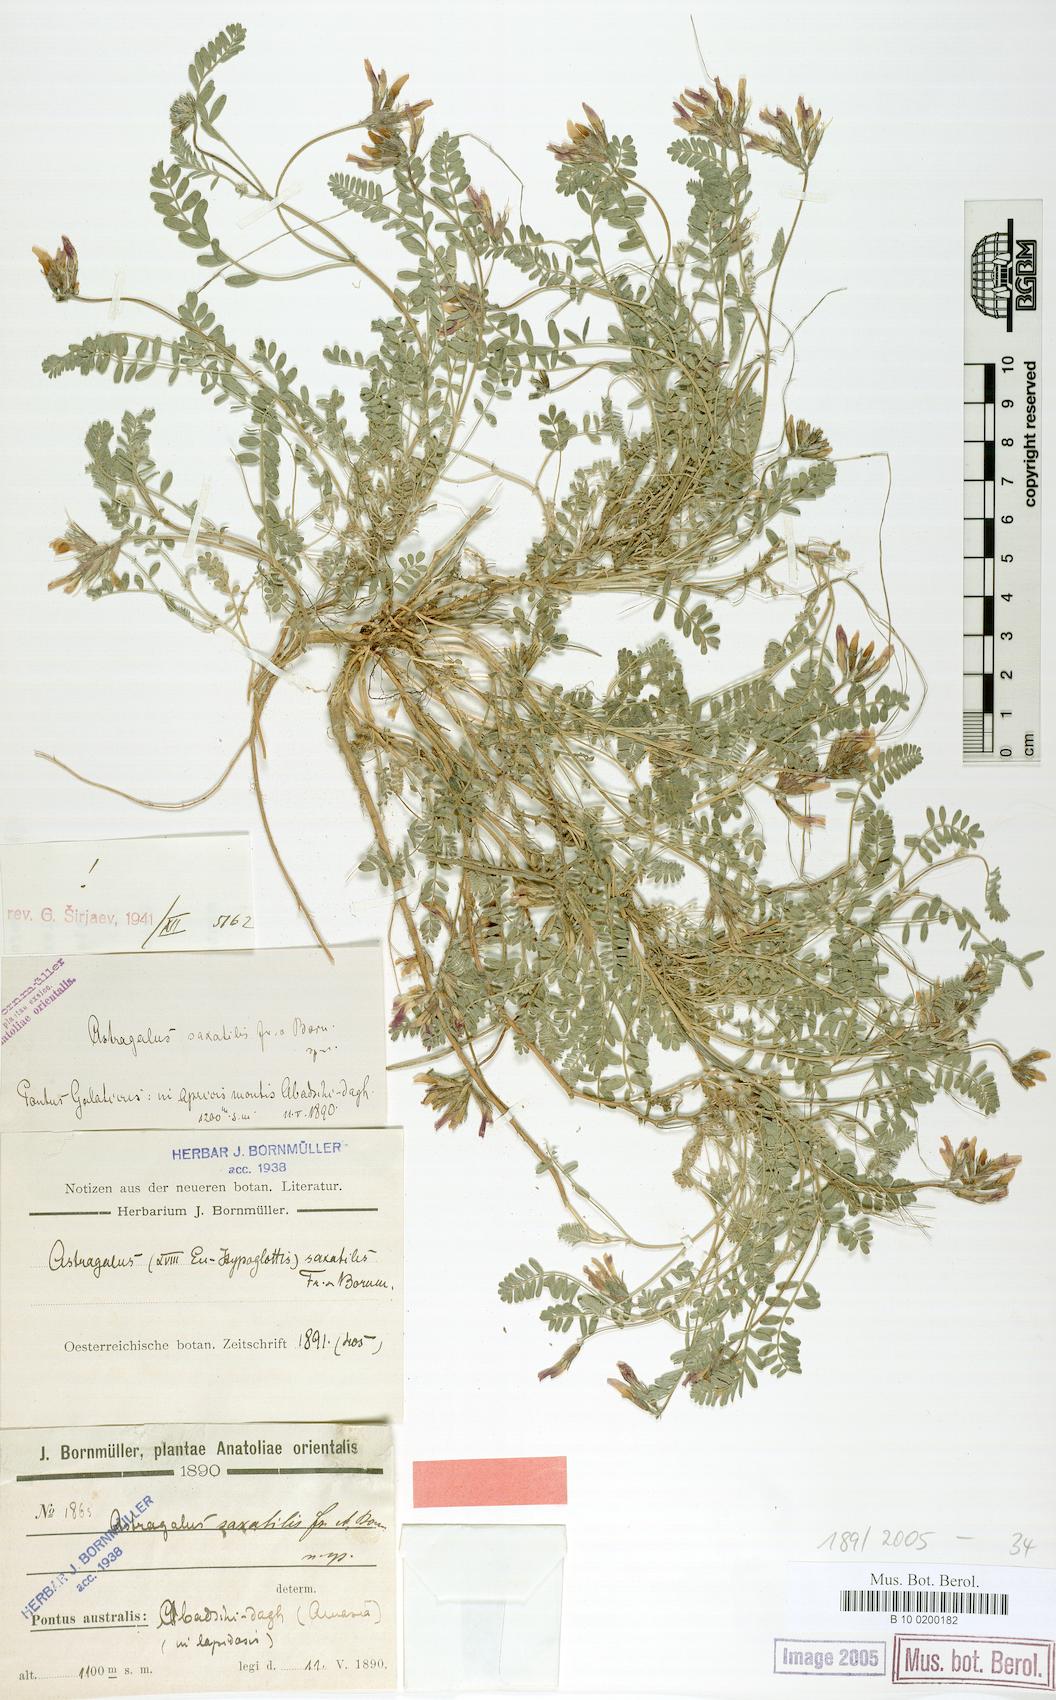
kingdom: Plantae
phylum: Tracheophyta
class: Magnoliopsida
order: Fabales
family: Fabaceae
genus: Astragalus
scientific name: Astragalus humifusus
